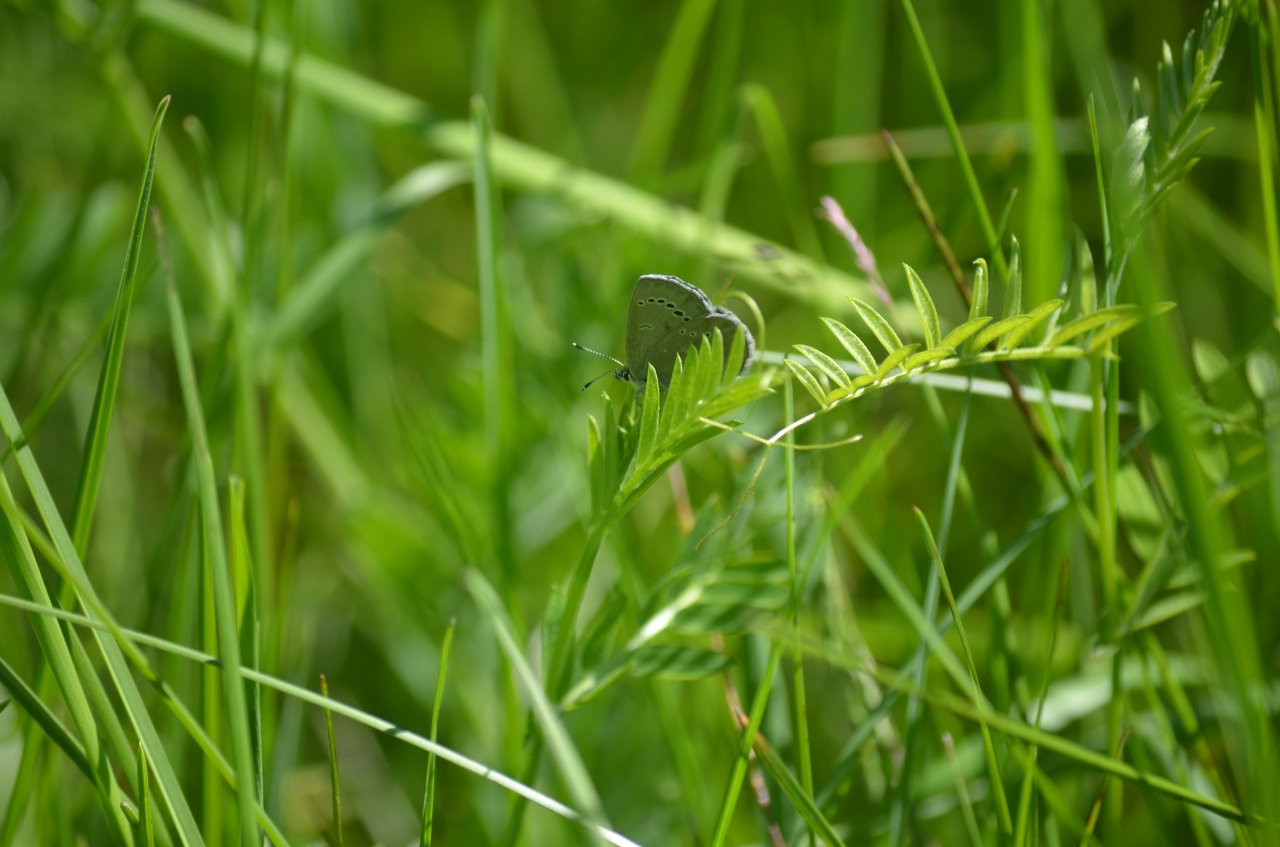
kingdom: Animalia
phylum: Arthropoda
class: Insecta
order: Lepidoptera
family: Lycaenidae
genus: Glaucopsyche
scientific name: Glaucopsyche lygdamus
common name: Silvery Blue
